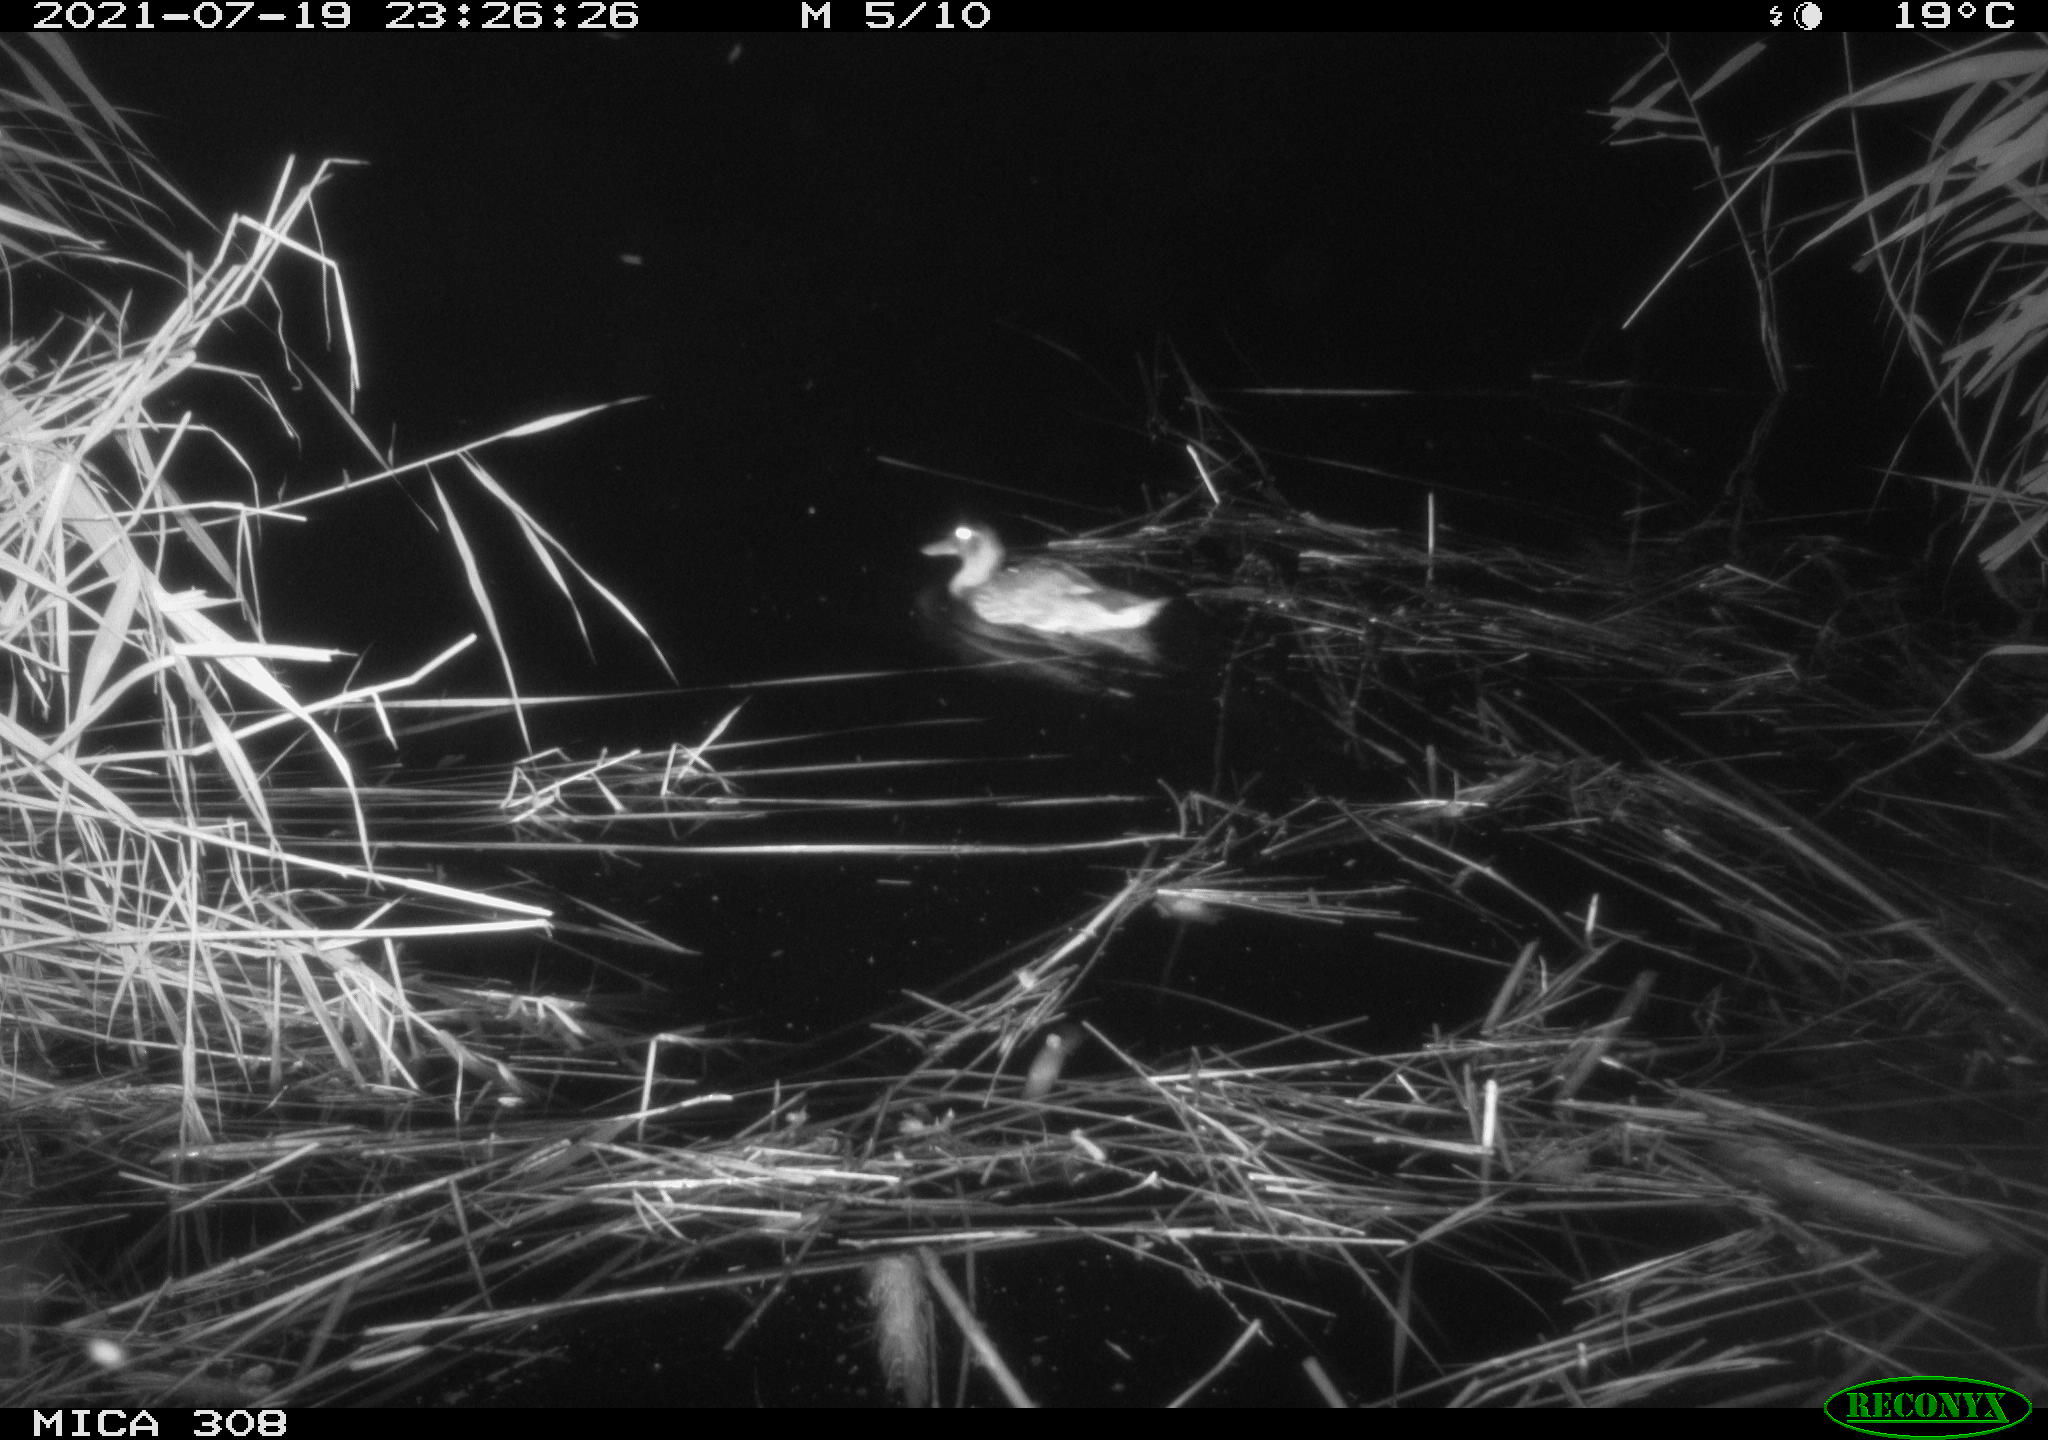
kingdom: Animalia
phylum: Chordata
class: Aves
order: Anseriformes
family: Anatidae
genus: Anas
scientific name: Anas platyrhynchos
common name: Mallard
